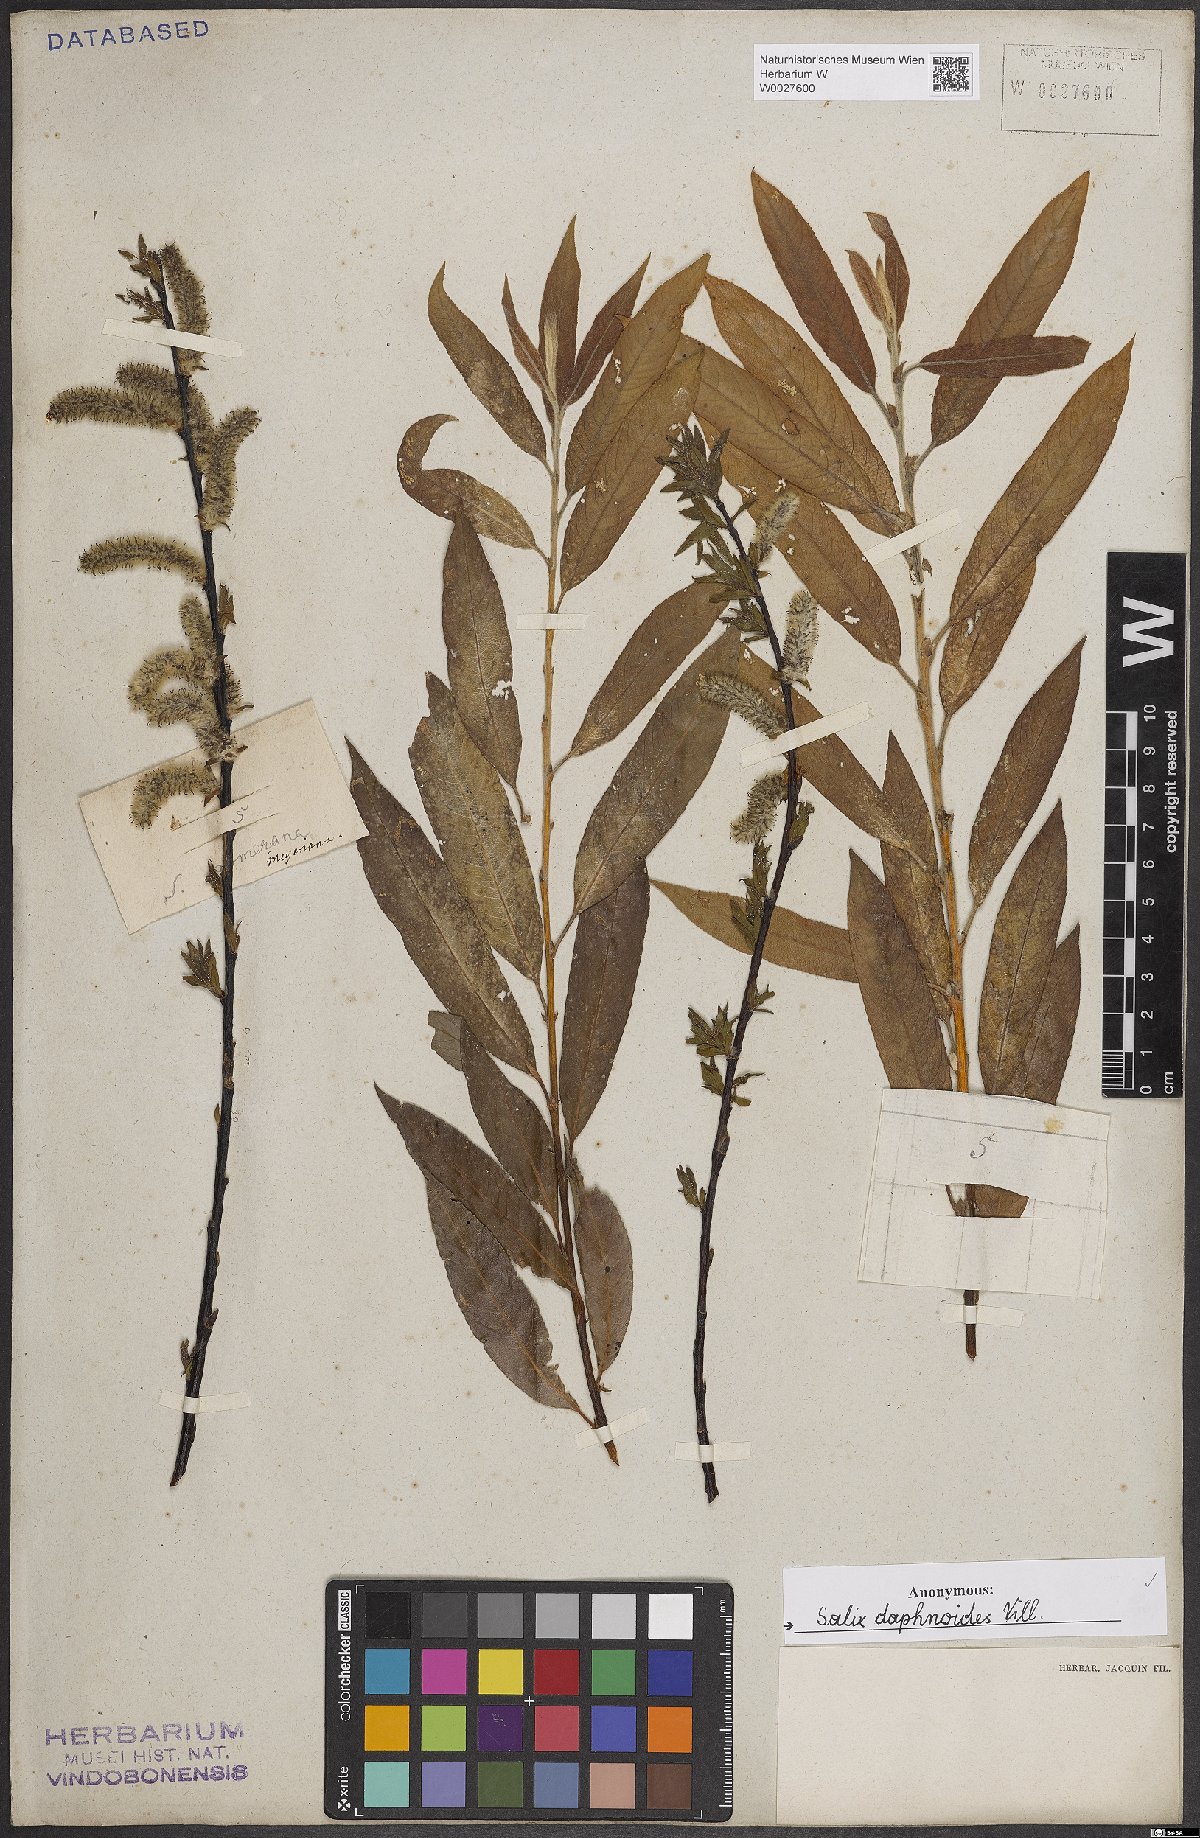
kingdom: Plantae
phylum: Tracheophyta
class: Magnoliopsida
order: Malpighiales
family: Salicaceae
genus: Salix
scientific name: Salix daphnoides
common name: European violet-willow
